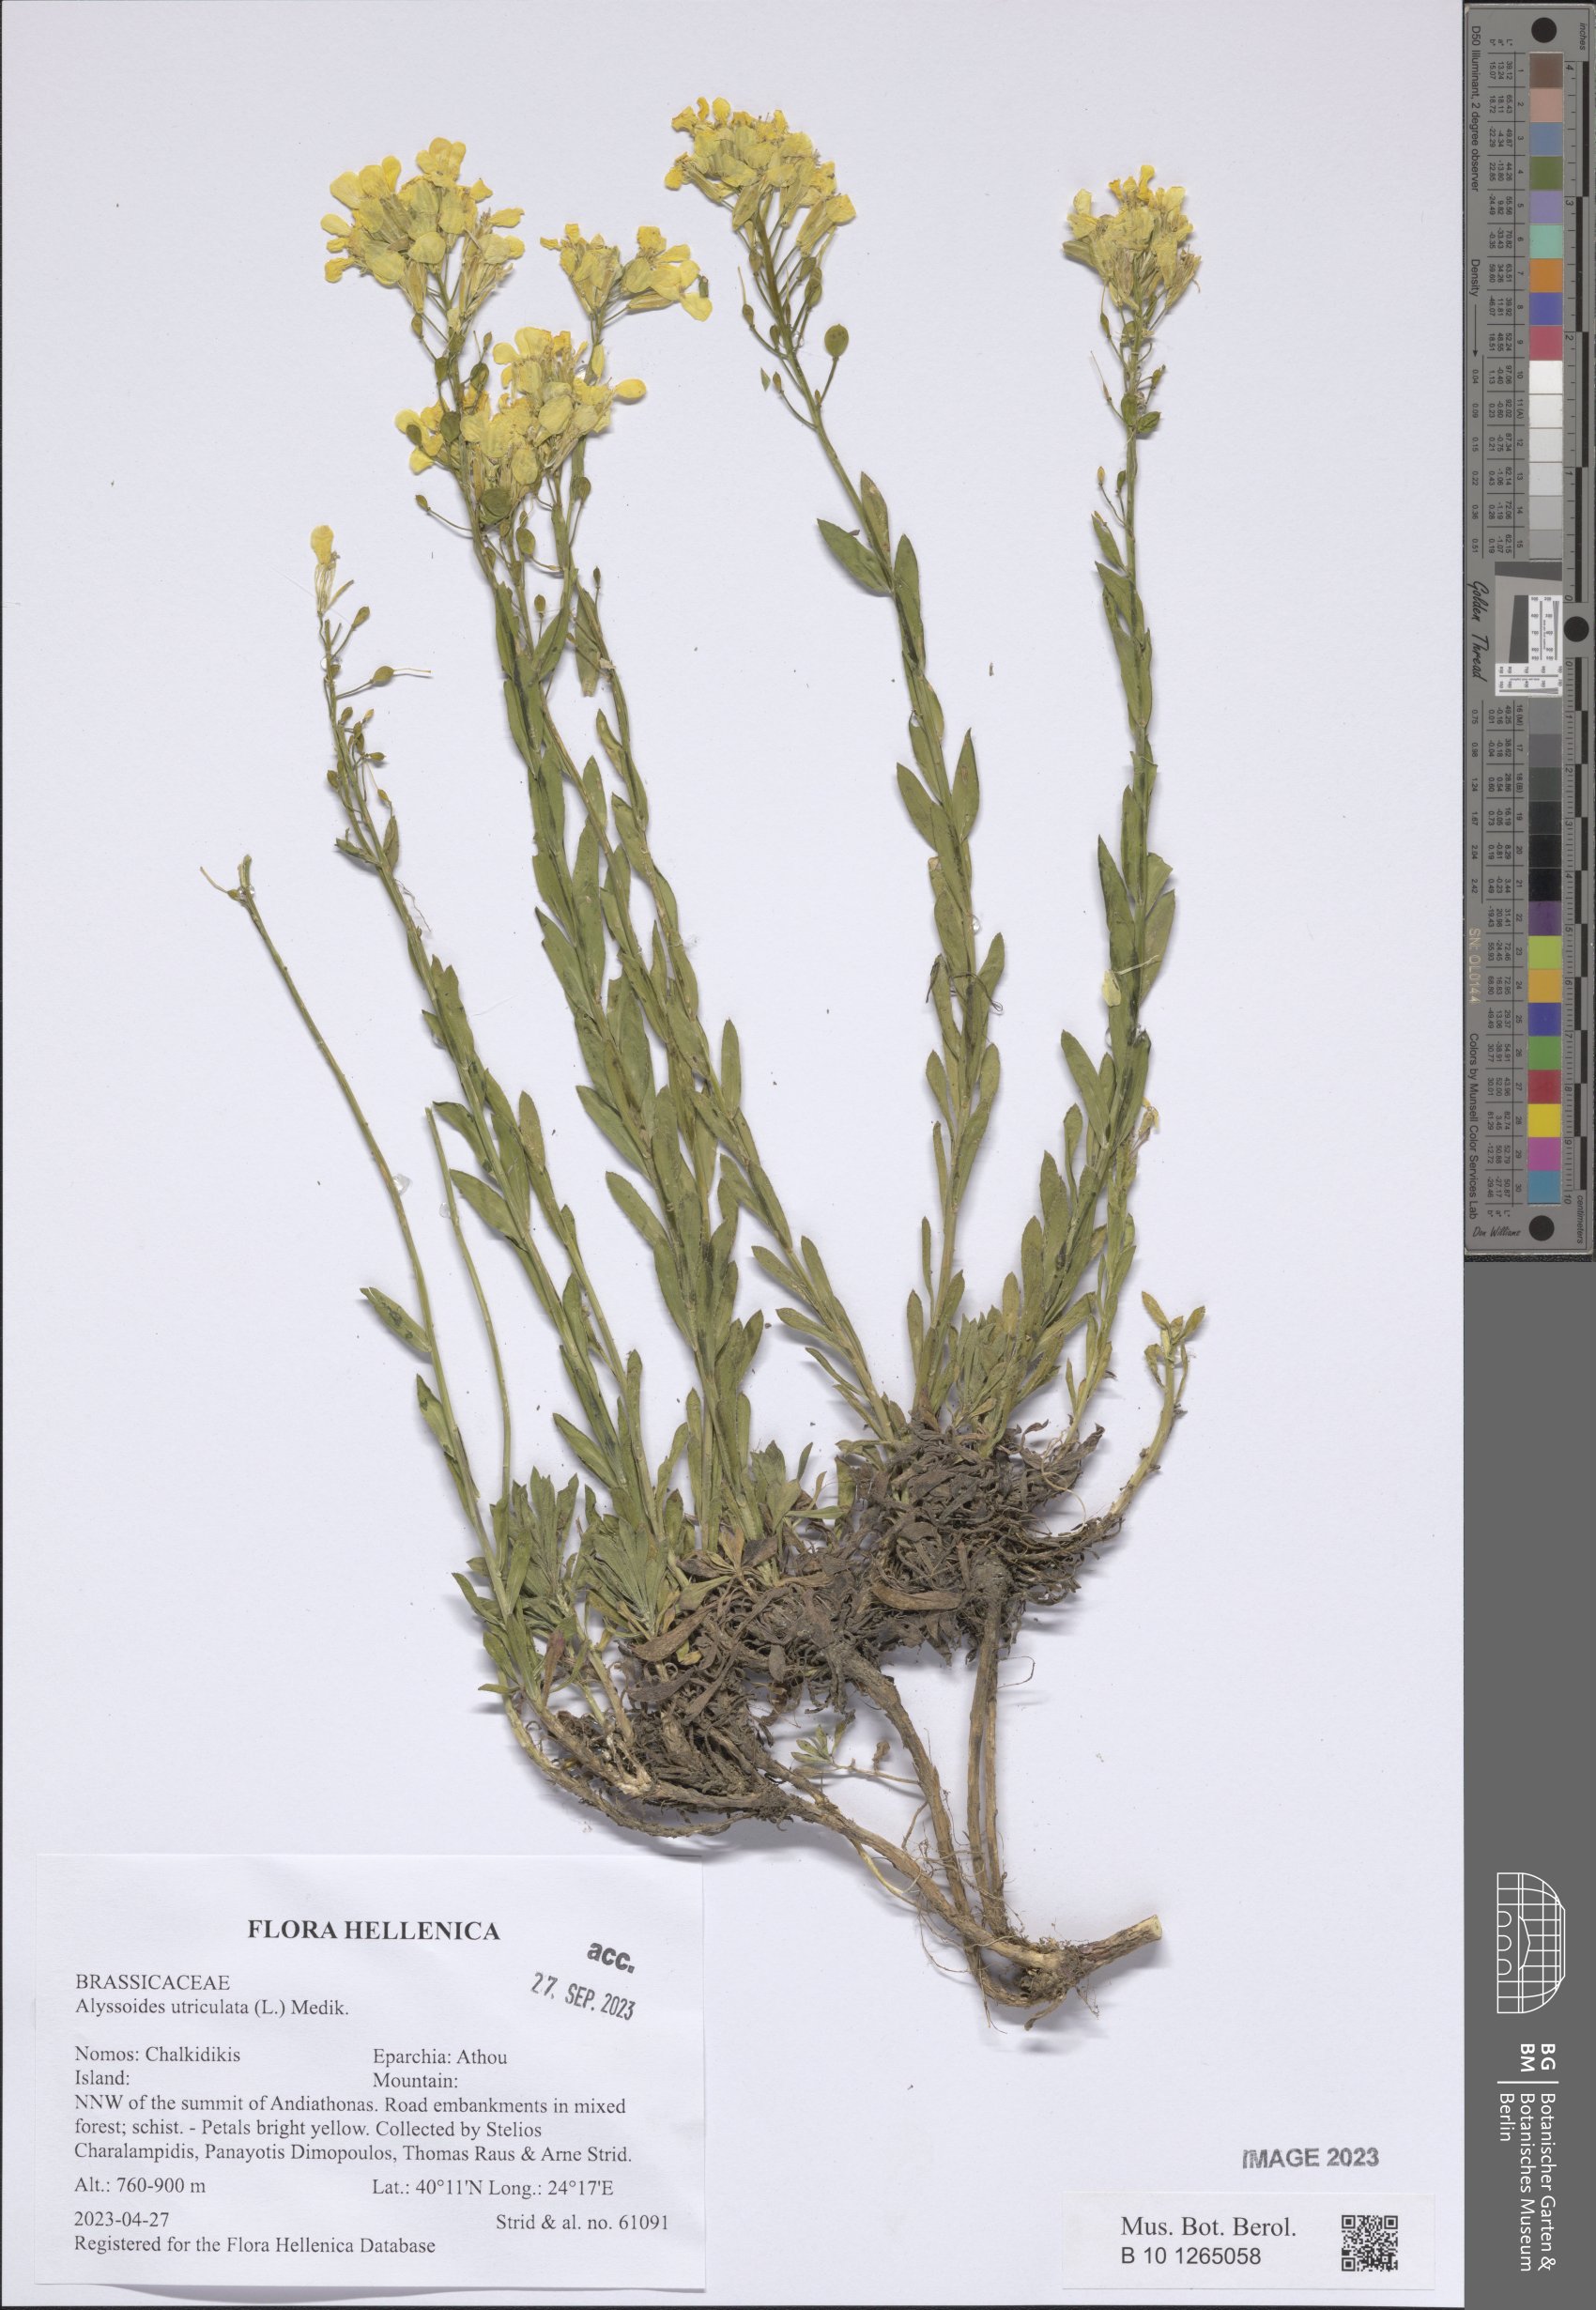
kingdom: Plantae
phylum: Tracheophyta
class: Magnoliopsida
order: Brassicales
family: Brassicaceae
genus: Alyssoides
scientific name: Alyssoides utriculata
